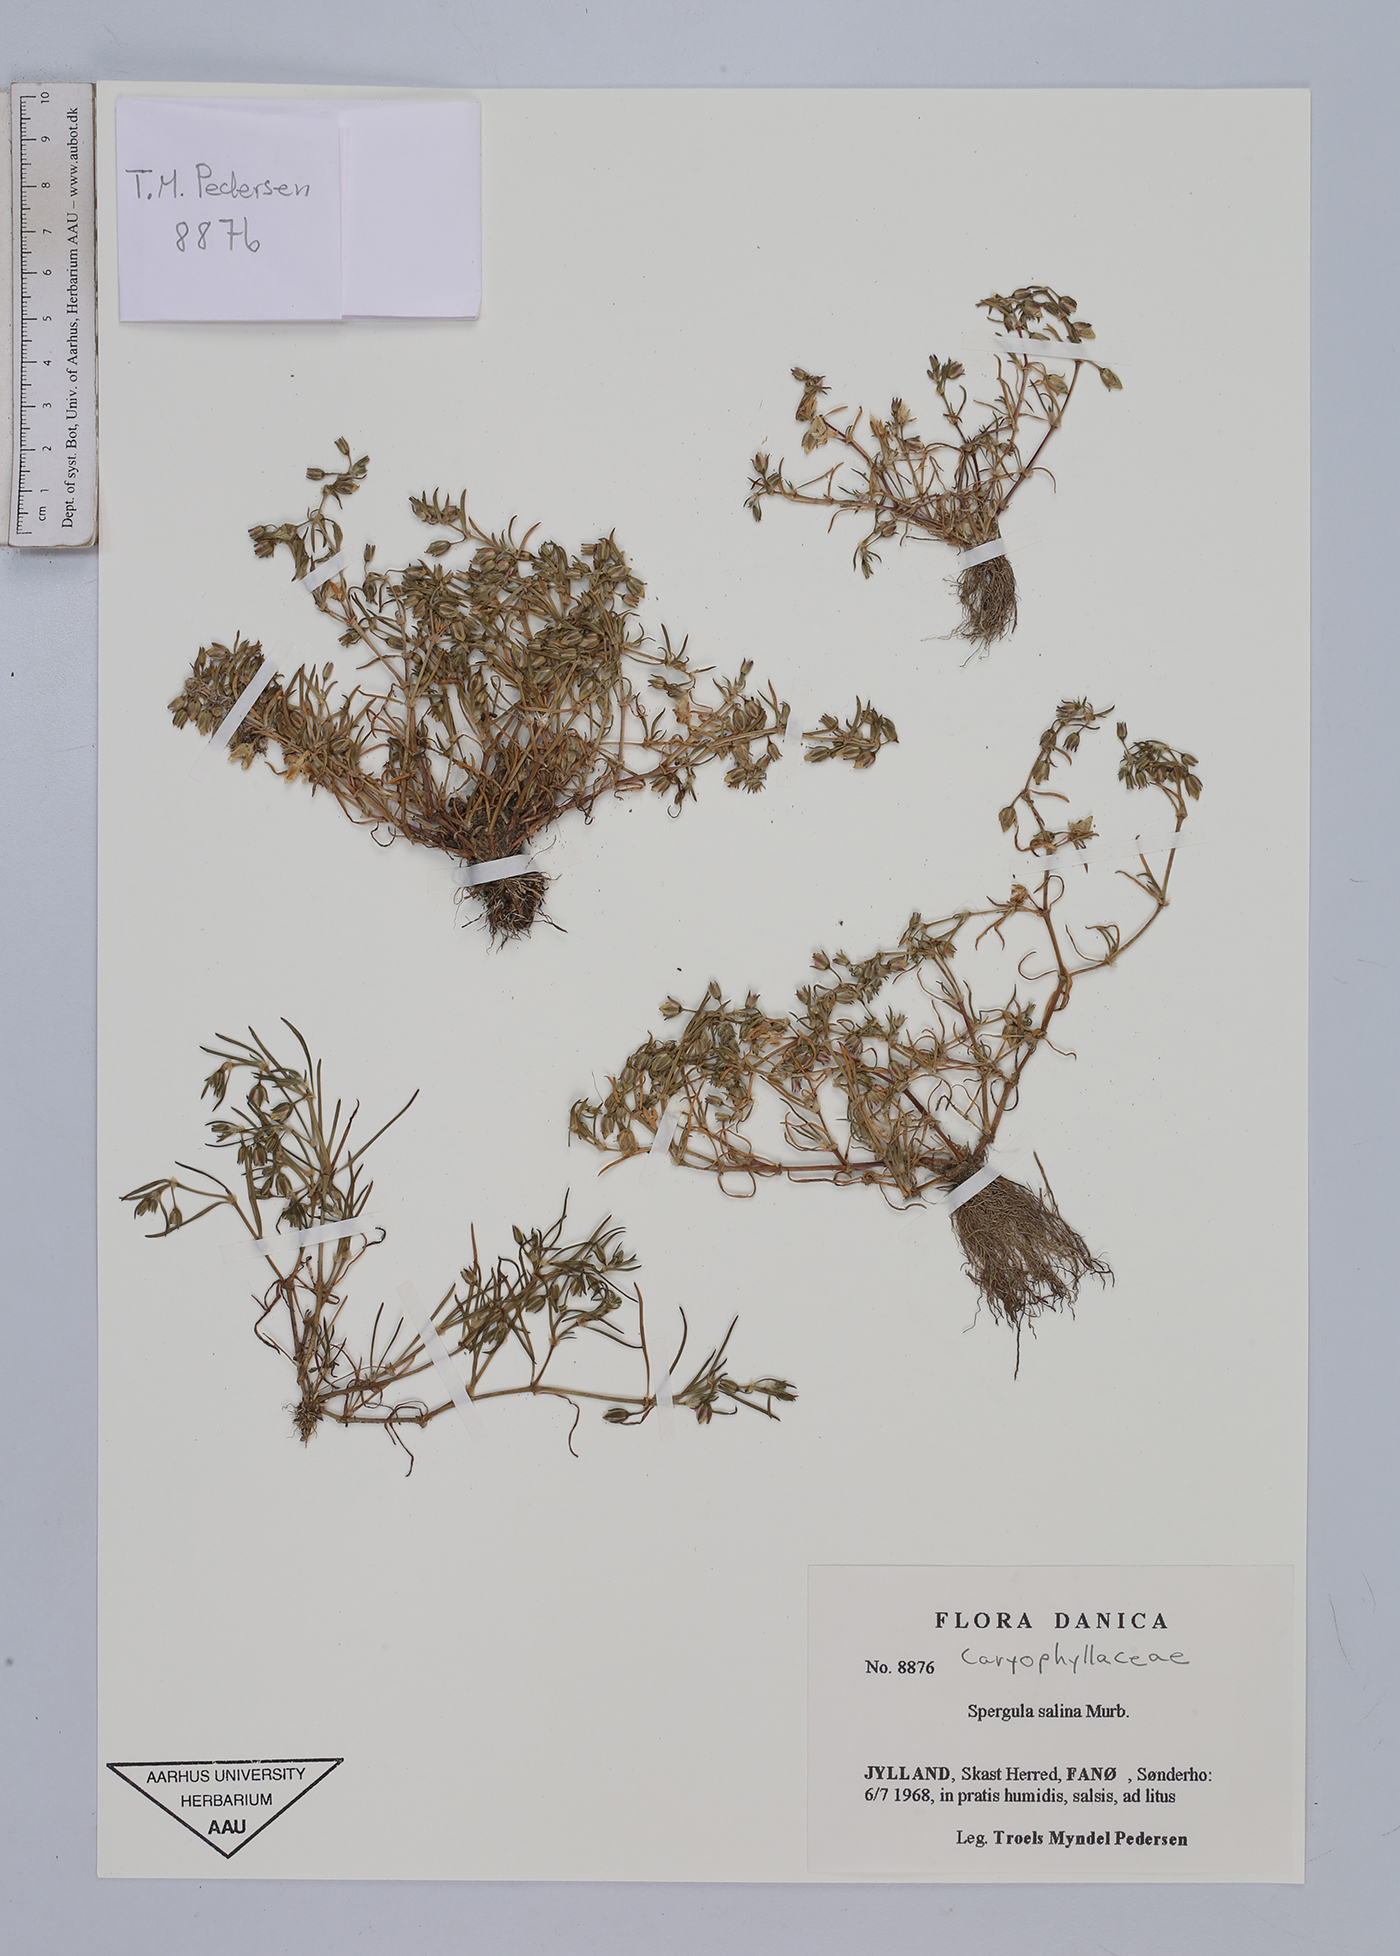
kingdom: Plantae
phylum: Tracheophyta
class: Magnoliopsida
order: Caryophyllales
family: Caryophyllaceae
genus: Spergularia
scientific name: Spergularia marina
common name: Lesser sea-spurrey
